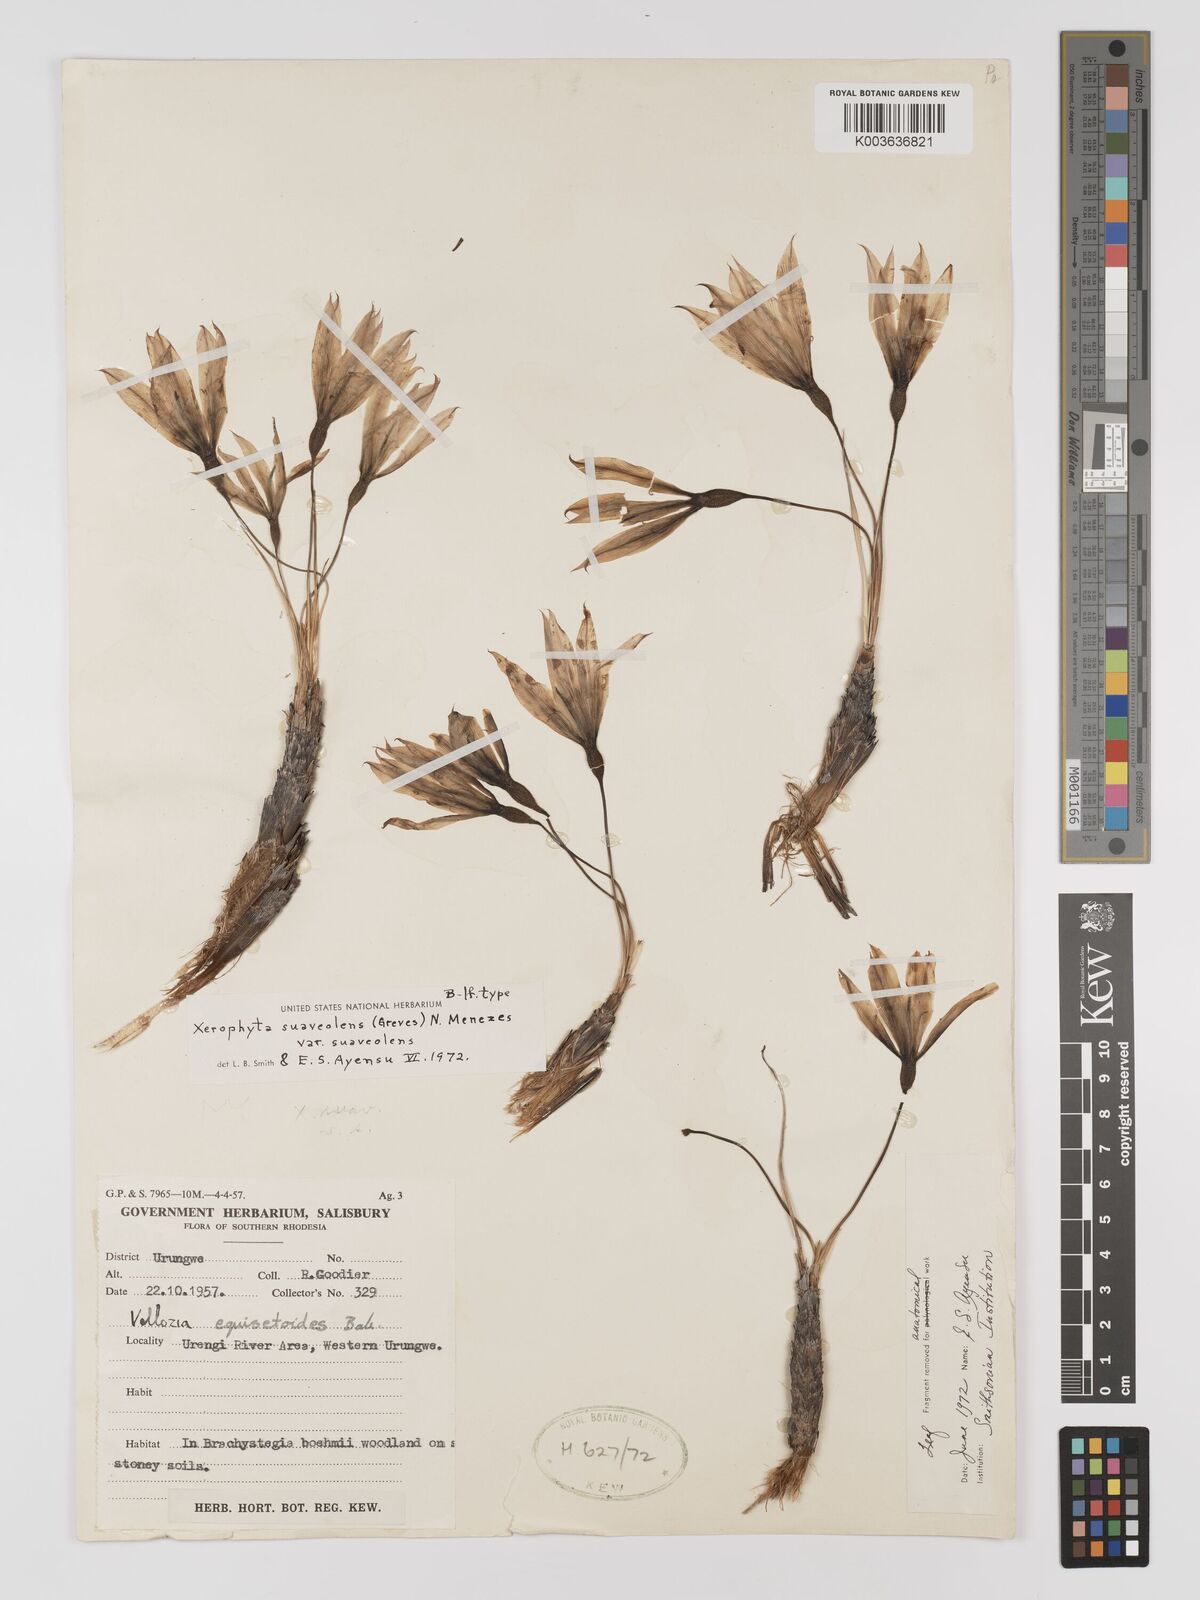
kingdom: Plantae
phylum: Tracheophyta
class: Liliopsida
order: Pandanales
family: Velloziaceae
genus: Xerophyta
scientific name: Xerophyta suaveolens
